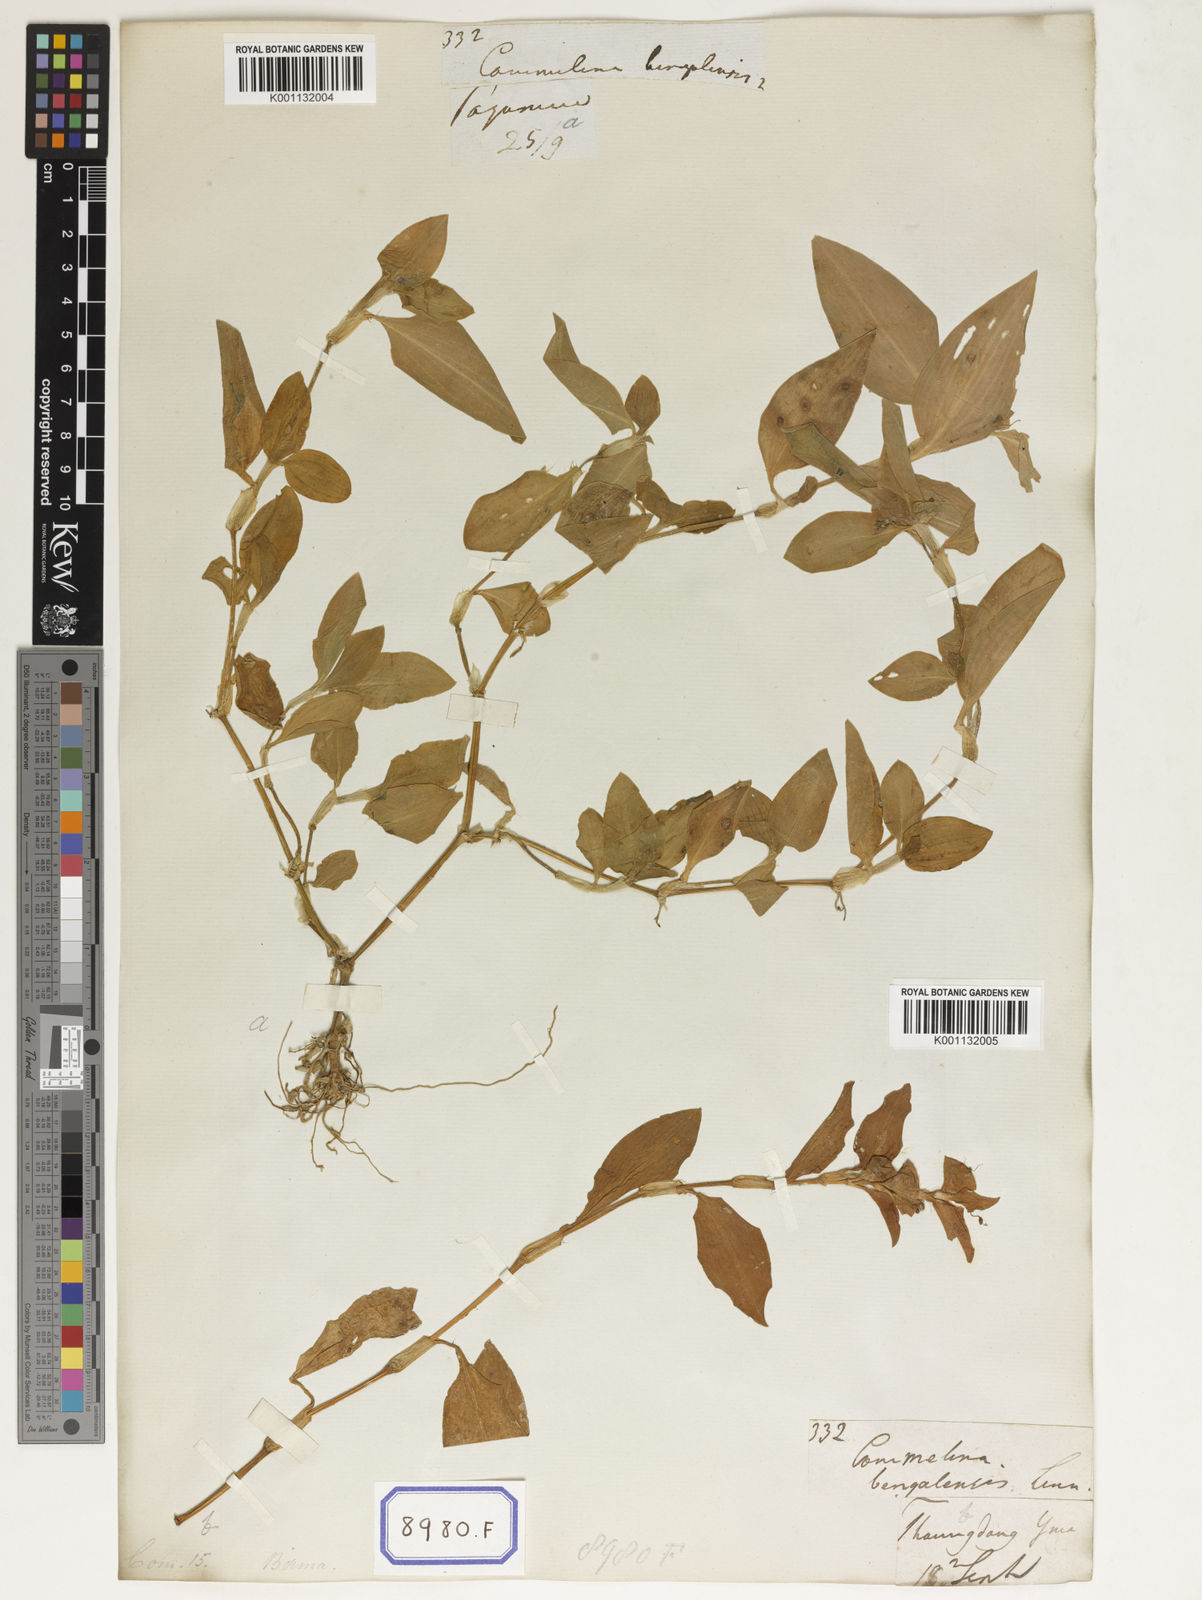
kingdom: Plantae
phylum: Tracheophyta
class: Liliopsida
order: Commelinales
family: Commelinaceae
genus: Commelina
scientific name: Commelina benghalensis
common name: Jio
